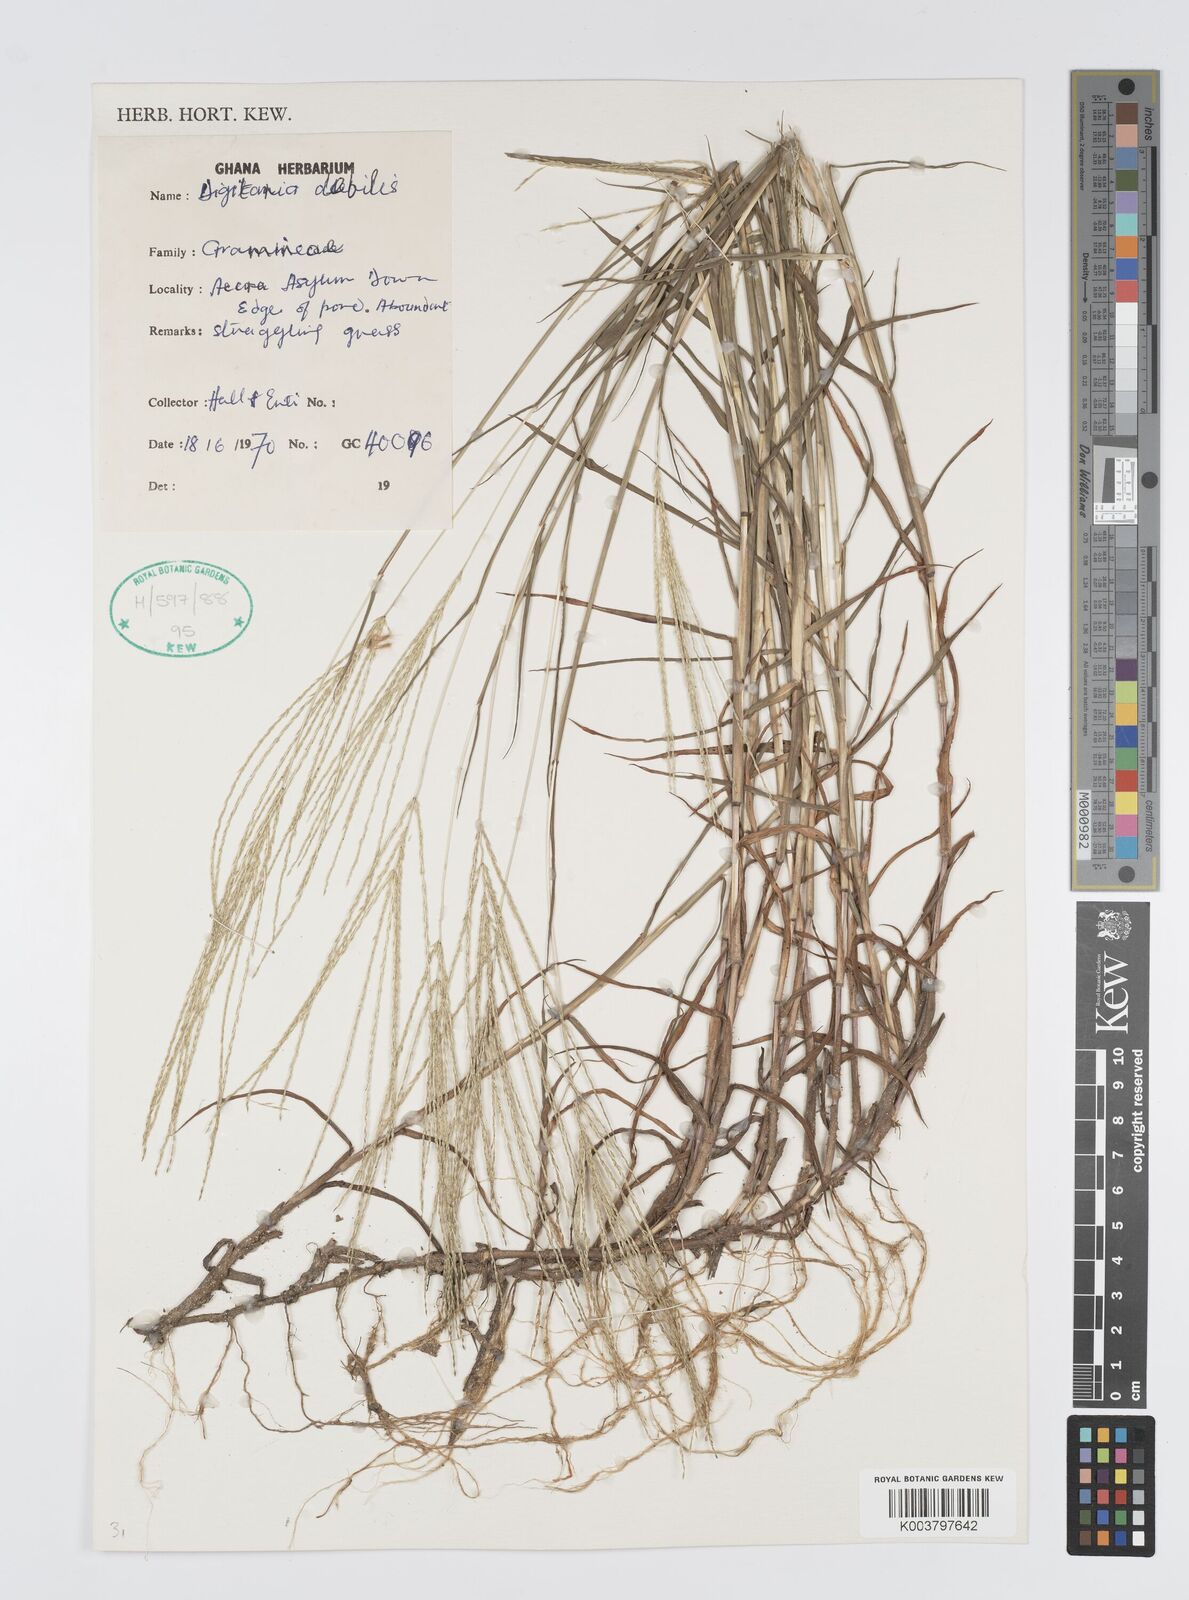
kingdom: Plantae
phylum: Tracheophyta
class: Liliopsida
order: Poales
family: Poaceae
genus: Digitaria
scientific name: Digitaria debilis
